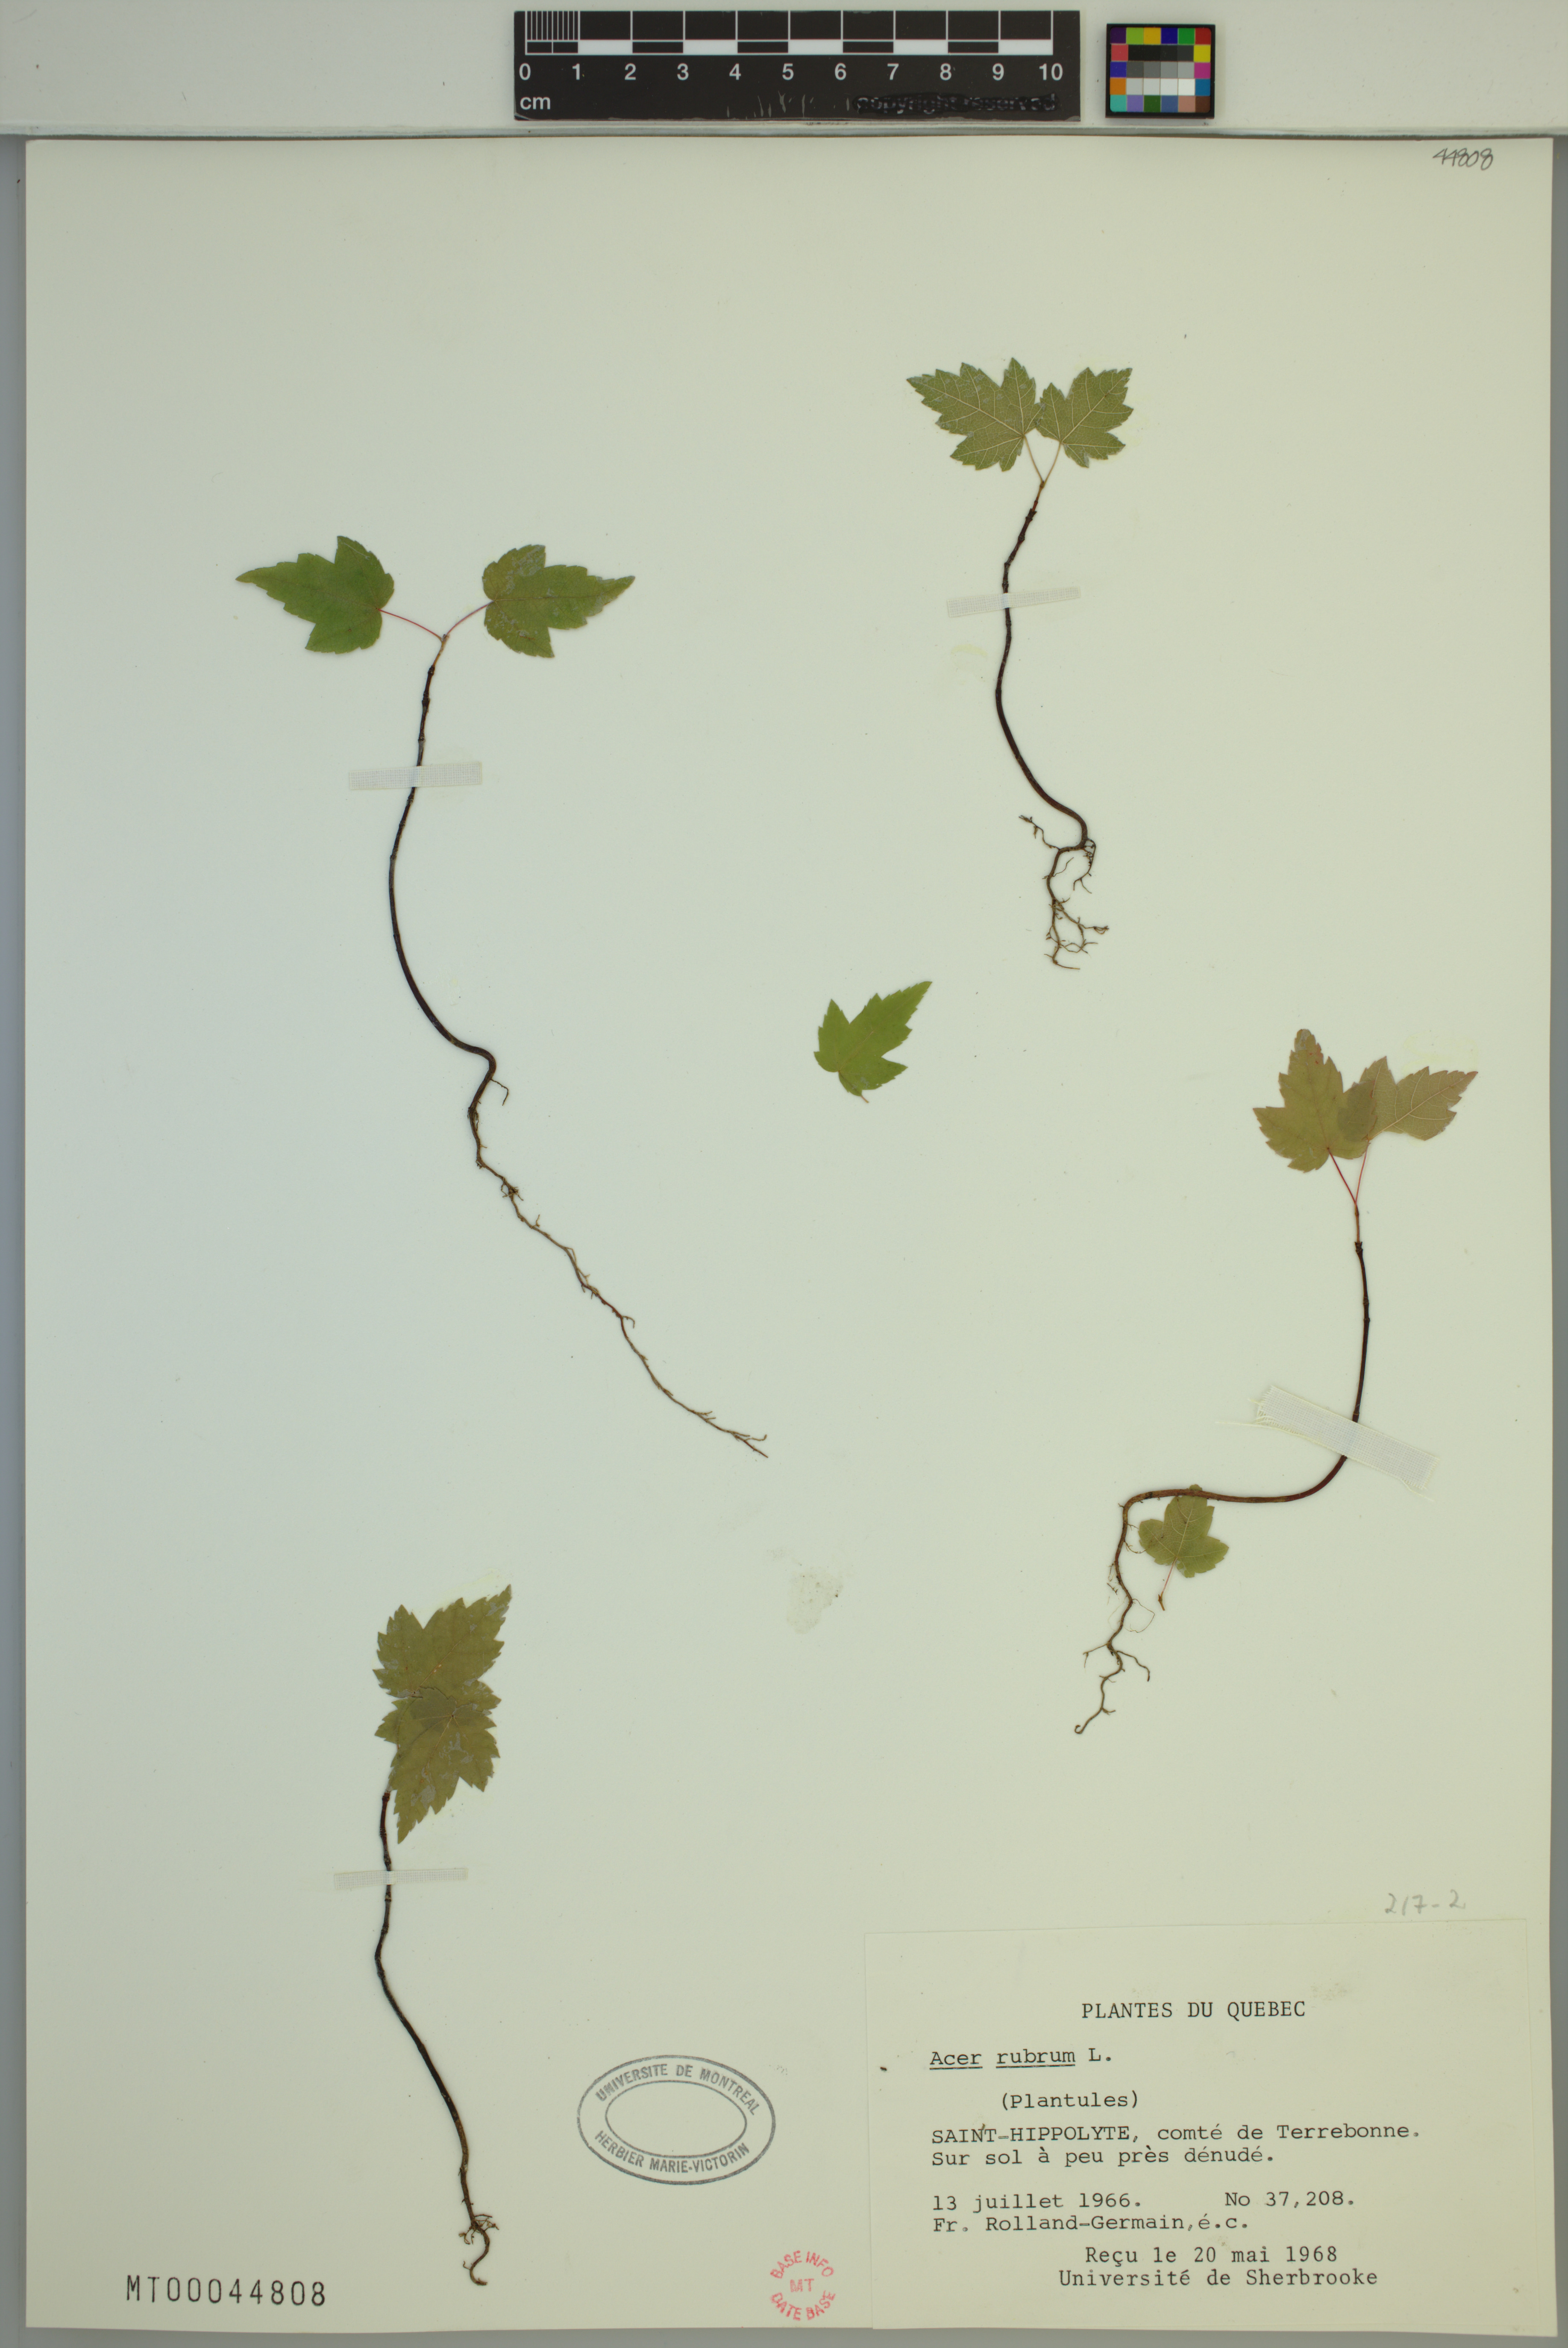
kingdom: Plantae
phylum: Tracheophyta
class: Magnoliopsida
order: Sapindales
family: Sapindaceae
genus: Acer
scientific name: Acer rubrum
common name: Red maple
